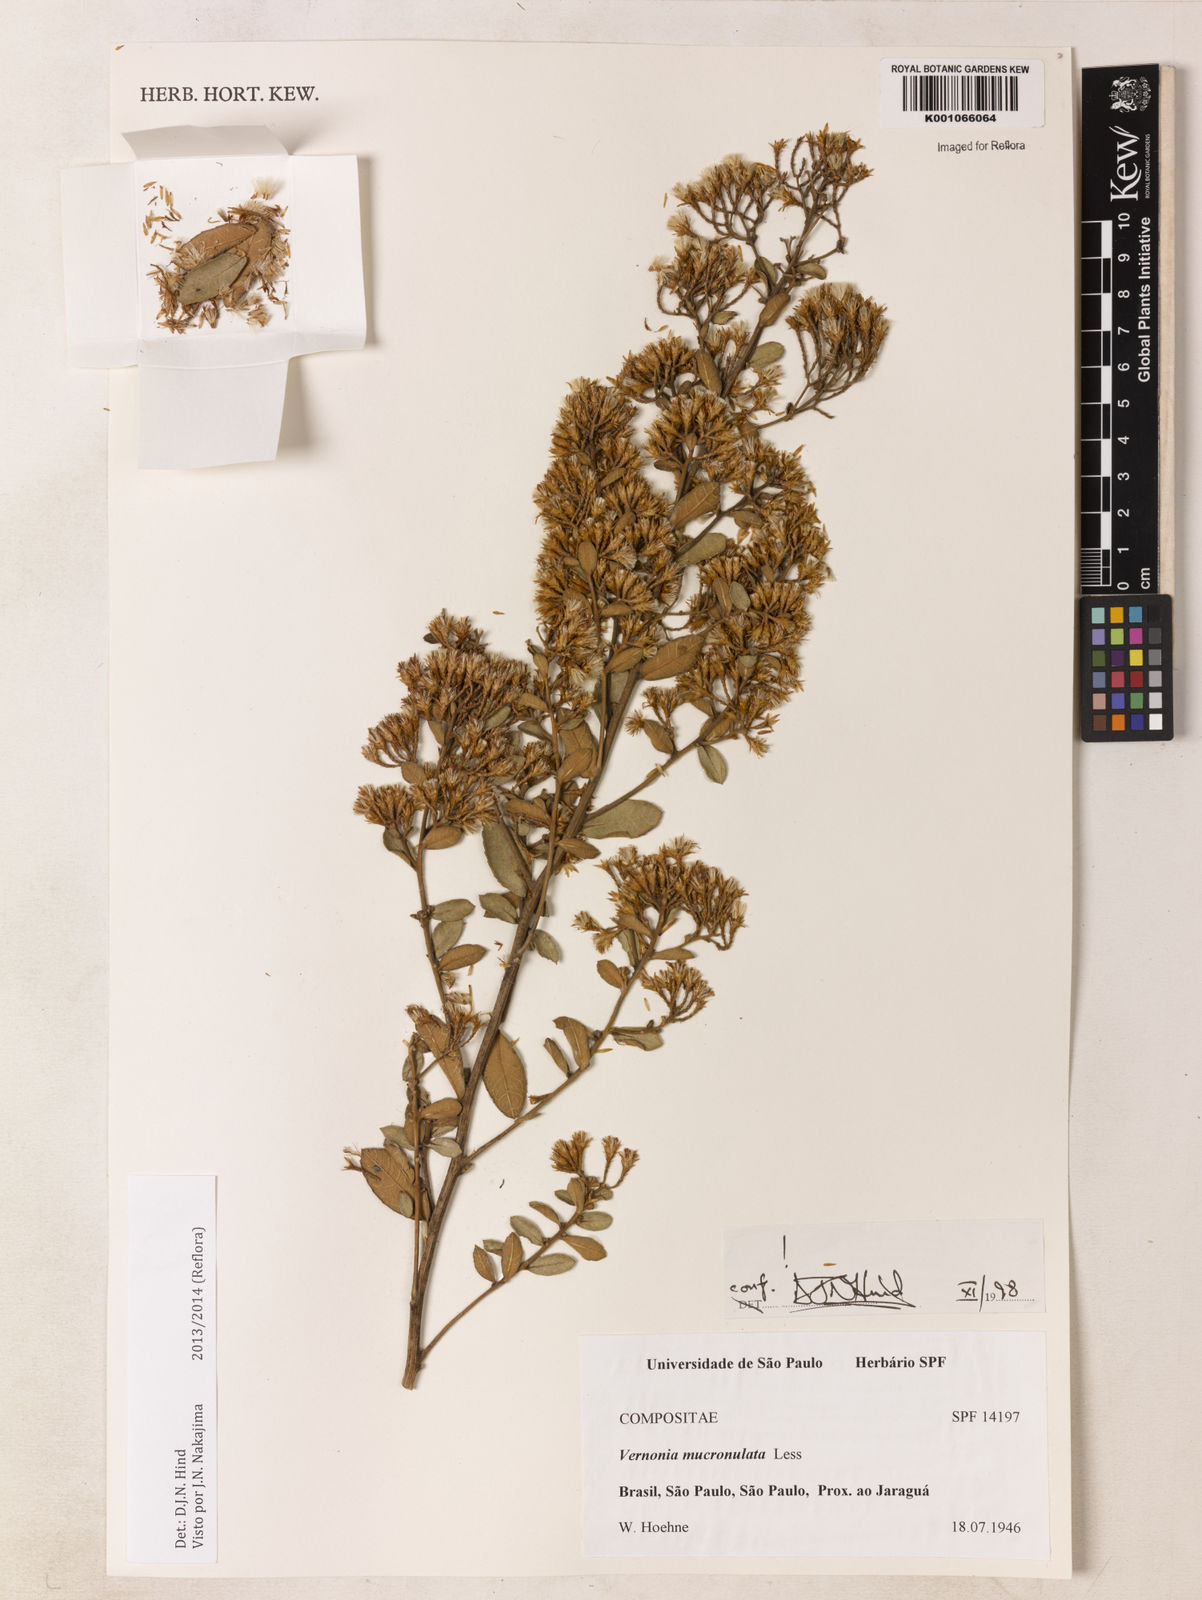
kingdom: Plantae
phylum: Tracheophyta
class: Magnoliopsida
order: Asterales
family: Asteraceae
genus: Vernonanthura
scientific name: Vernonanthura mucronulata
